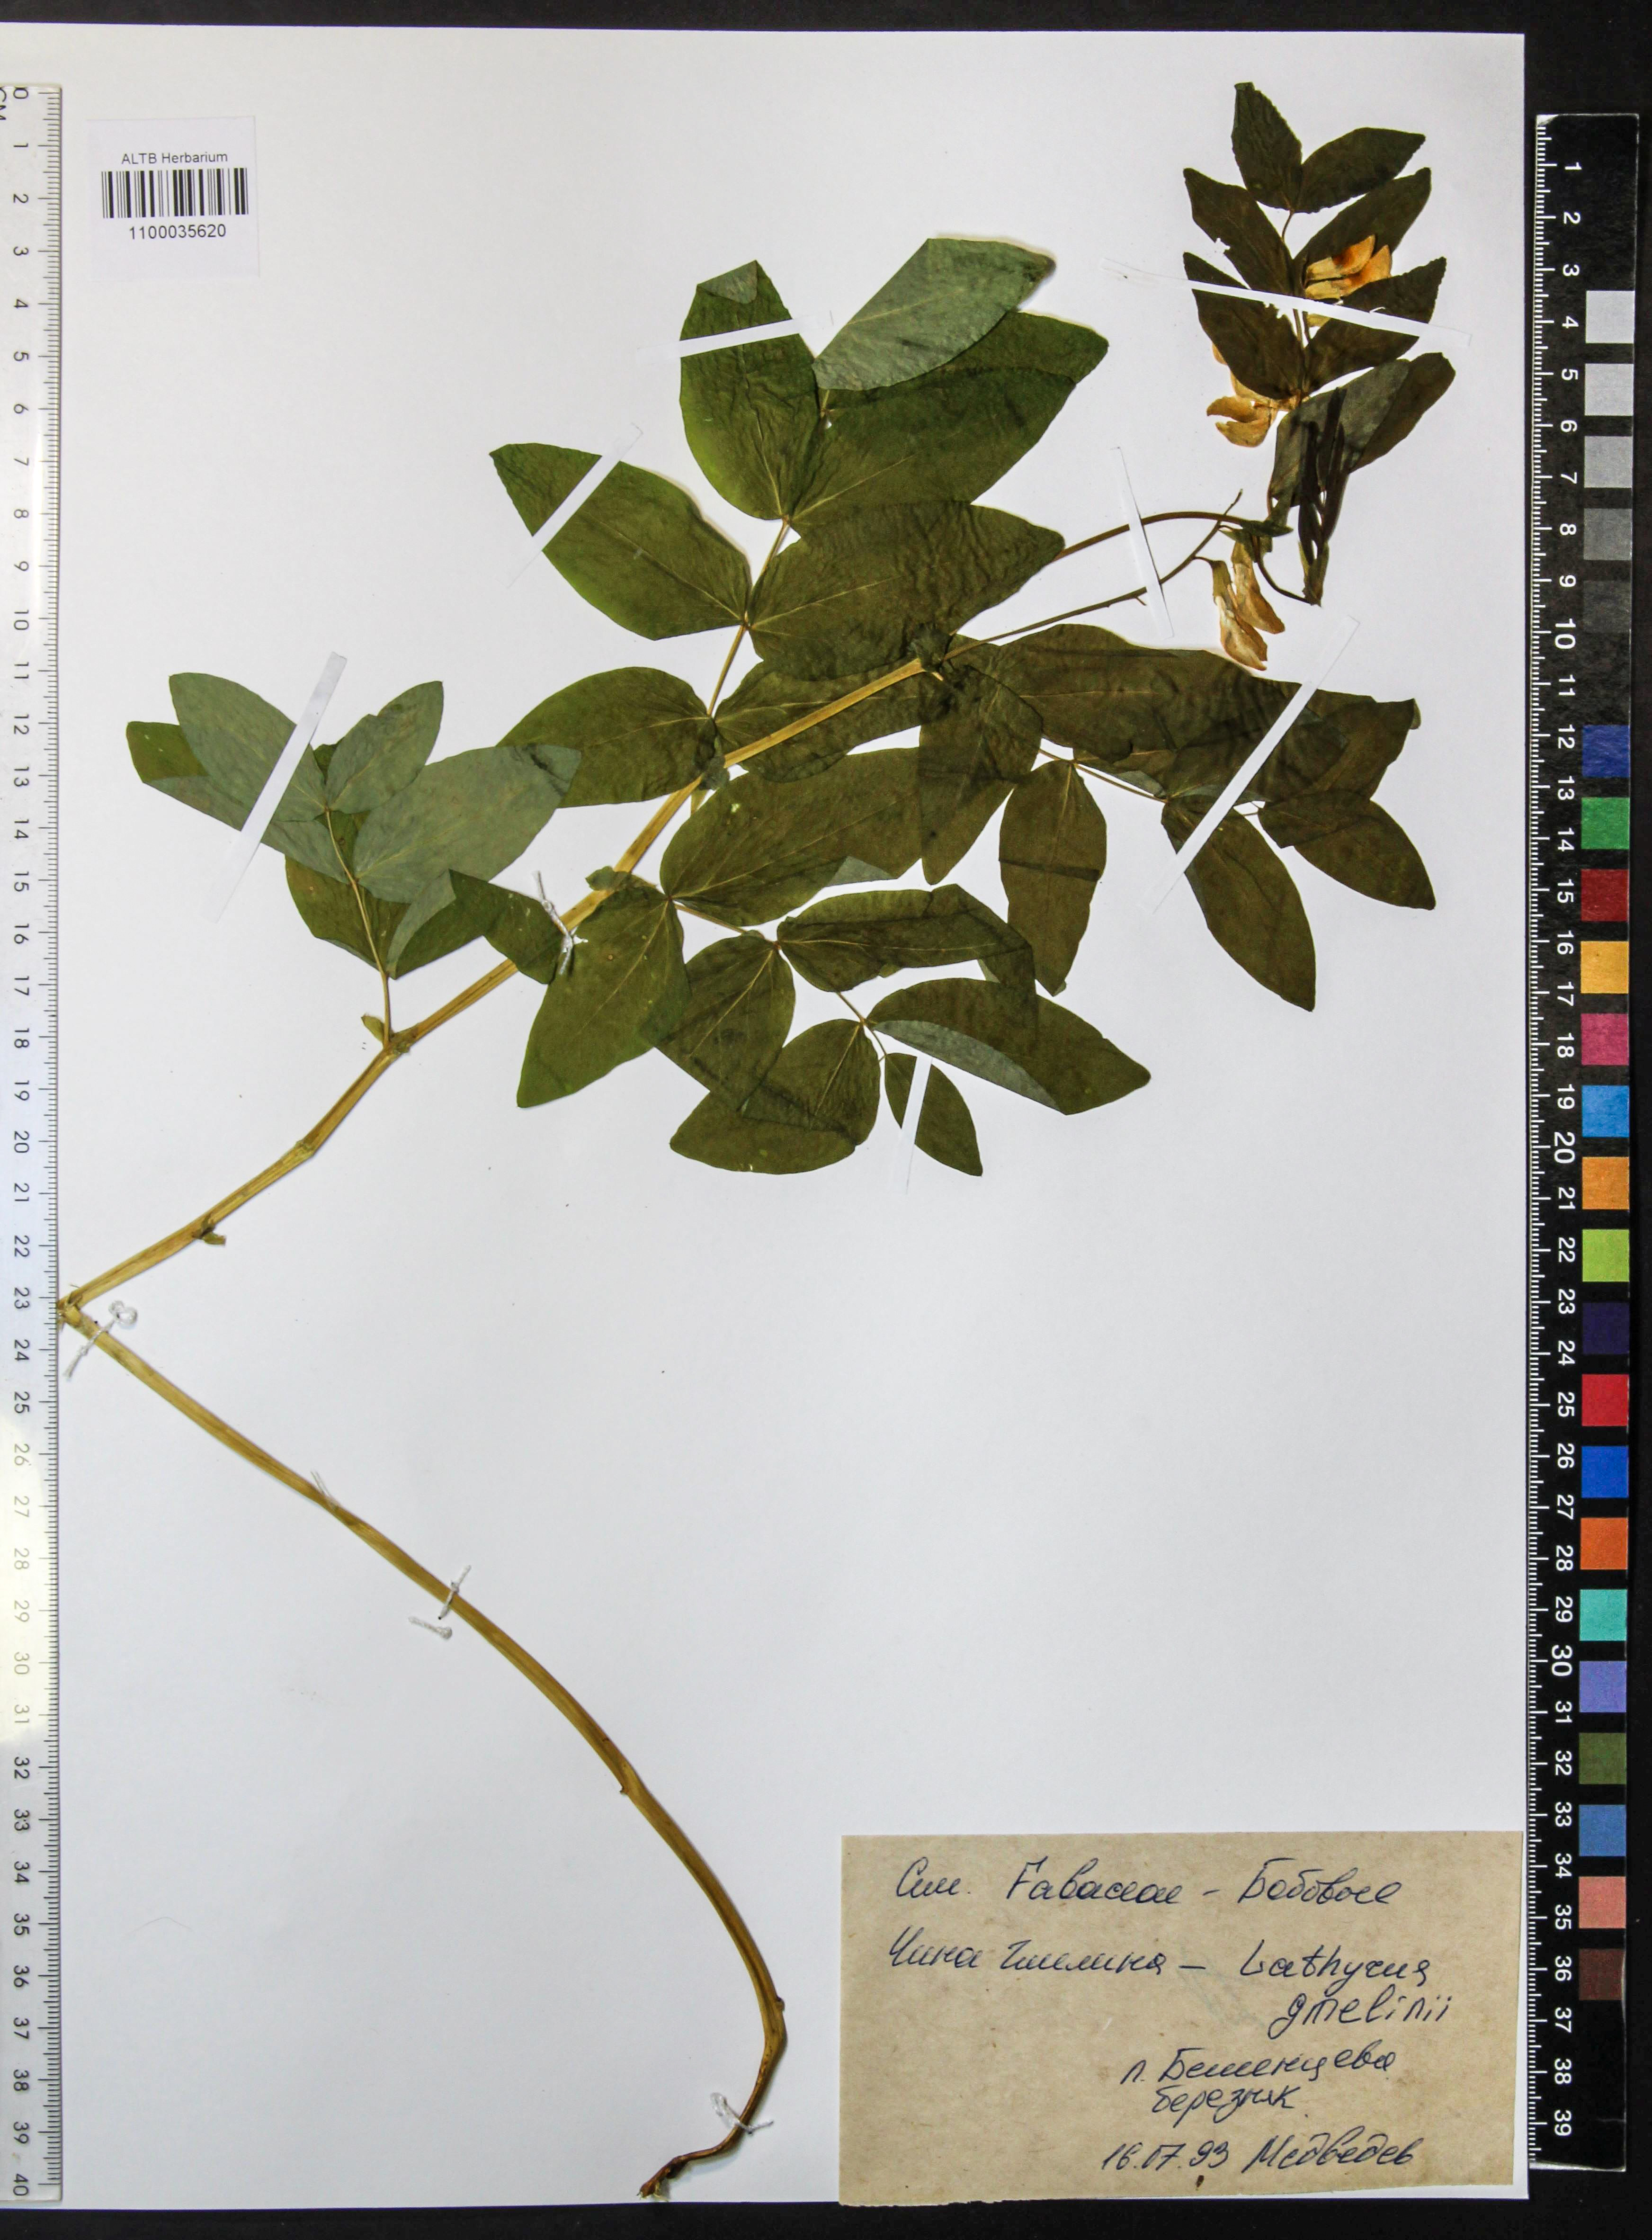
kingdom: Plantae
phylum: Tracheophyta
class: Magnoliopsida
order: Fabales
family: Fabaceae
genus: Lathyrus
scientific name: Lathyrus gmelinii
